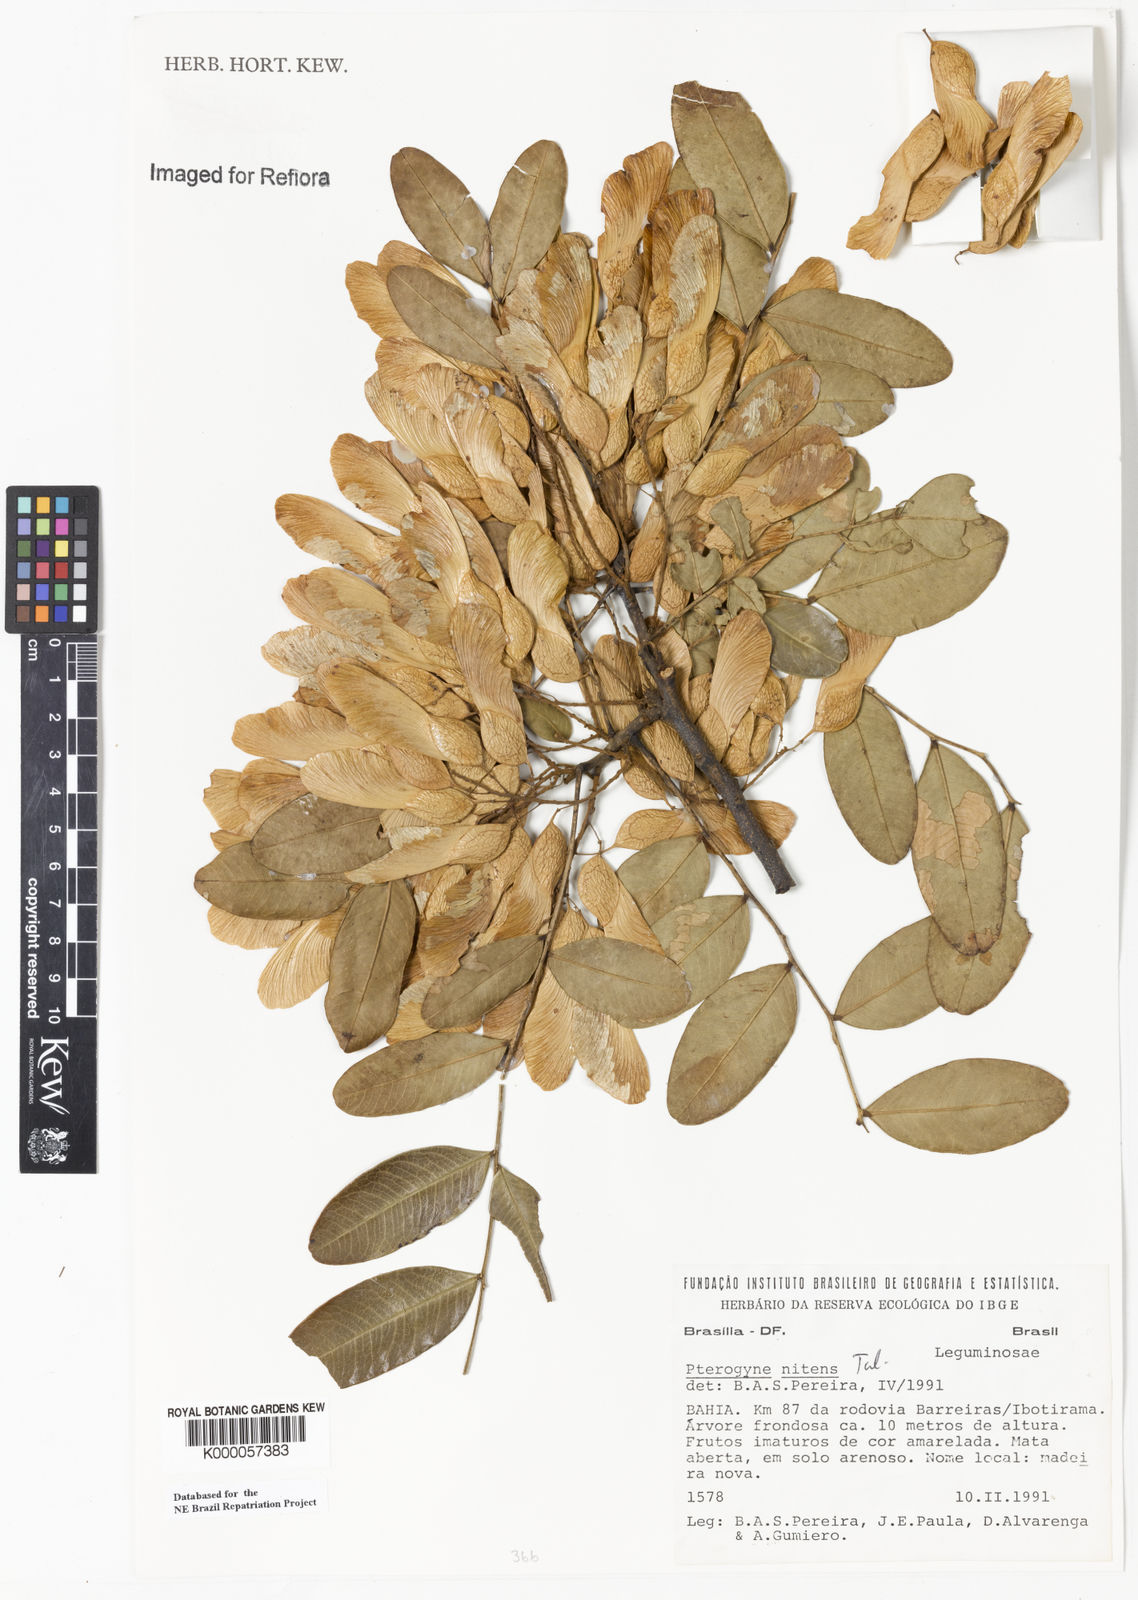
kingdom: Plantae
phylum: Tracheophyta
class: Magnoliopsida
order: Fabales
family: Fabaceae
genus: Pterogyne
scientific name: Pterogyne nitens
